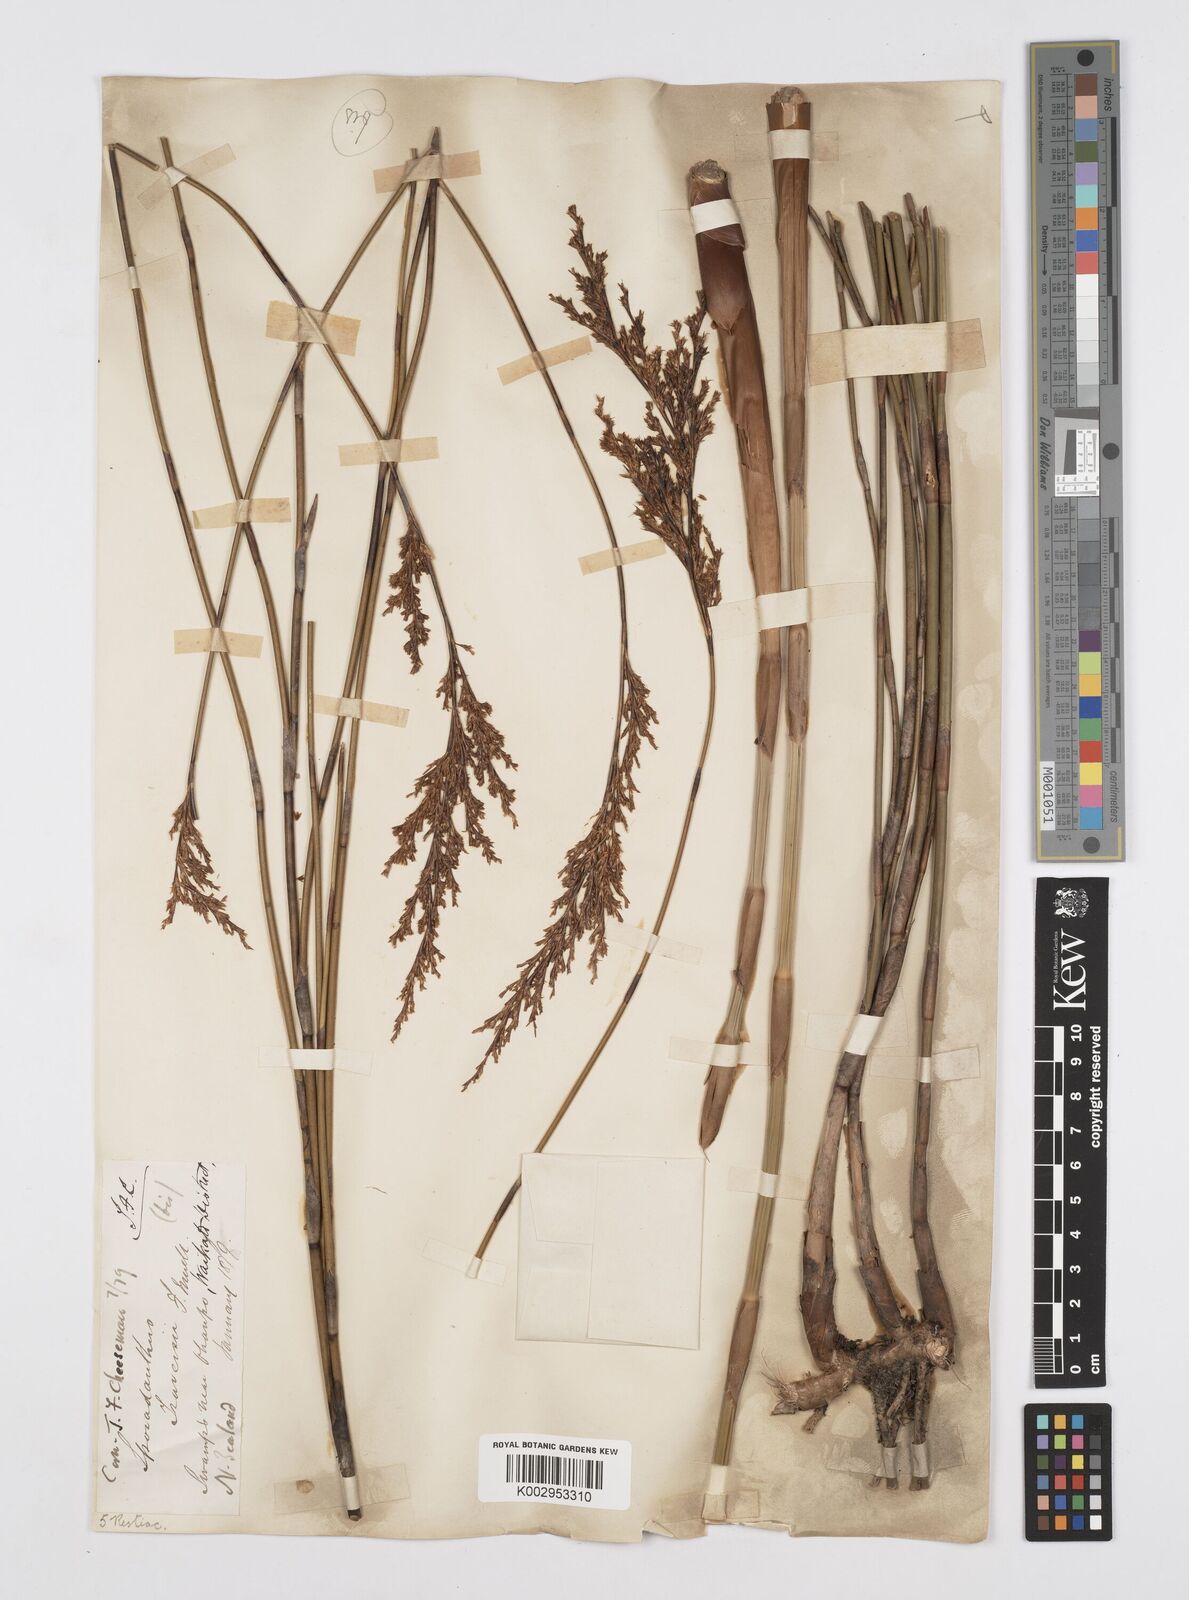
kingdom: Plantae
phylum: Tracheophyta
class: Liliopsida
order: Poales
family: Restionaceae
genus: Sporadanthus
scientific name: Sporadanthus traversii
